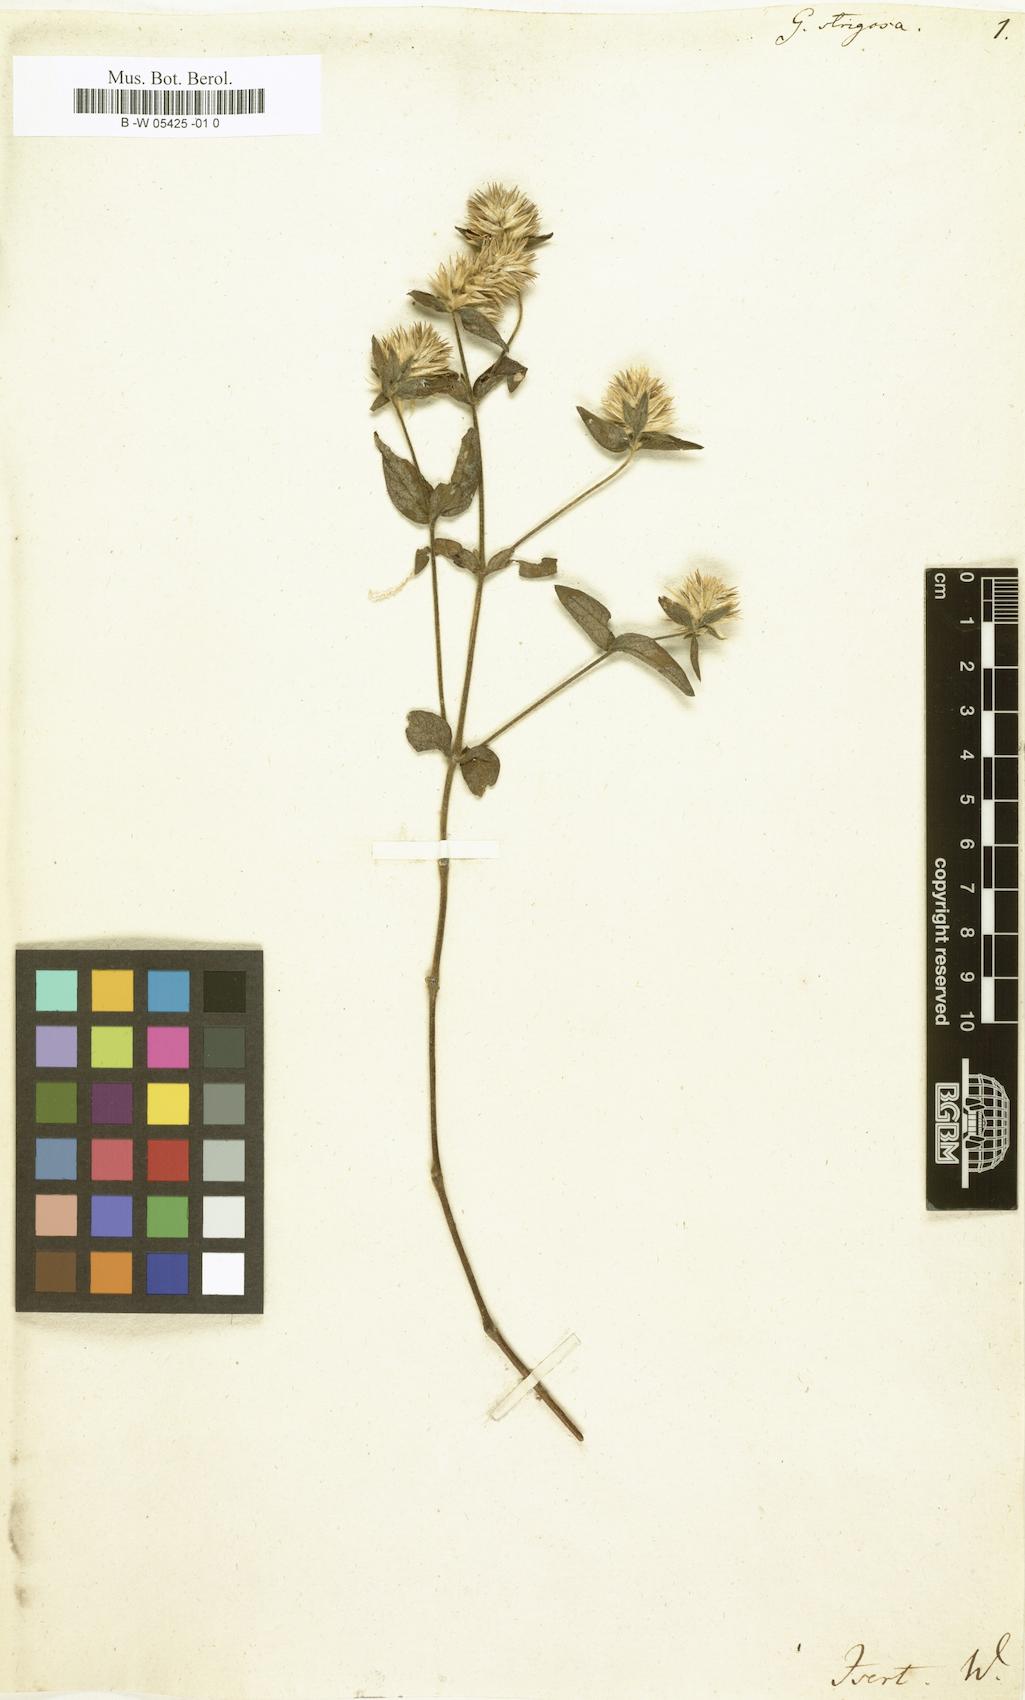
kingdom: Plantae
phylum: Tracheophyta
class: Magnoliopsida
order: Caryophyllales
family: Amaranthaceae
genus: Gomphrena
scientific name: Gomphrena strigosa
